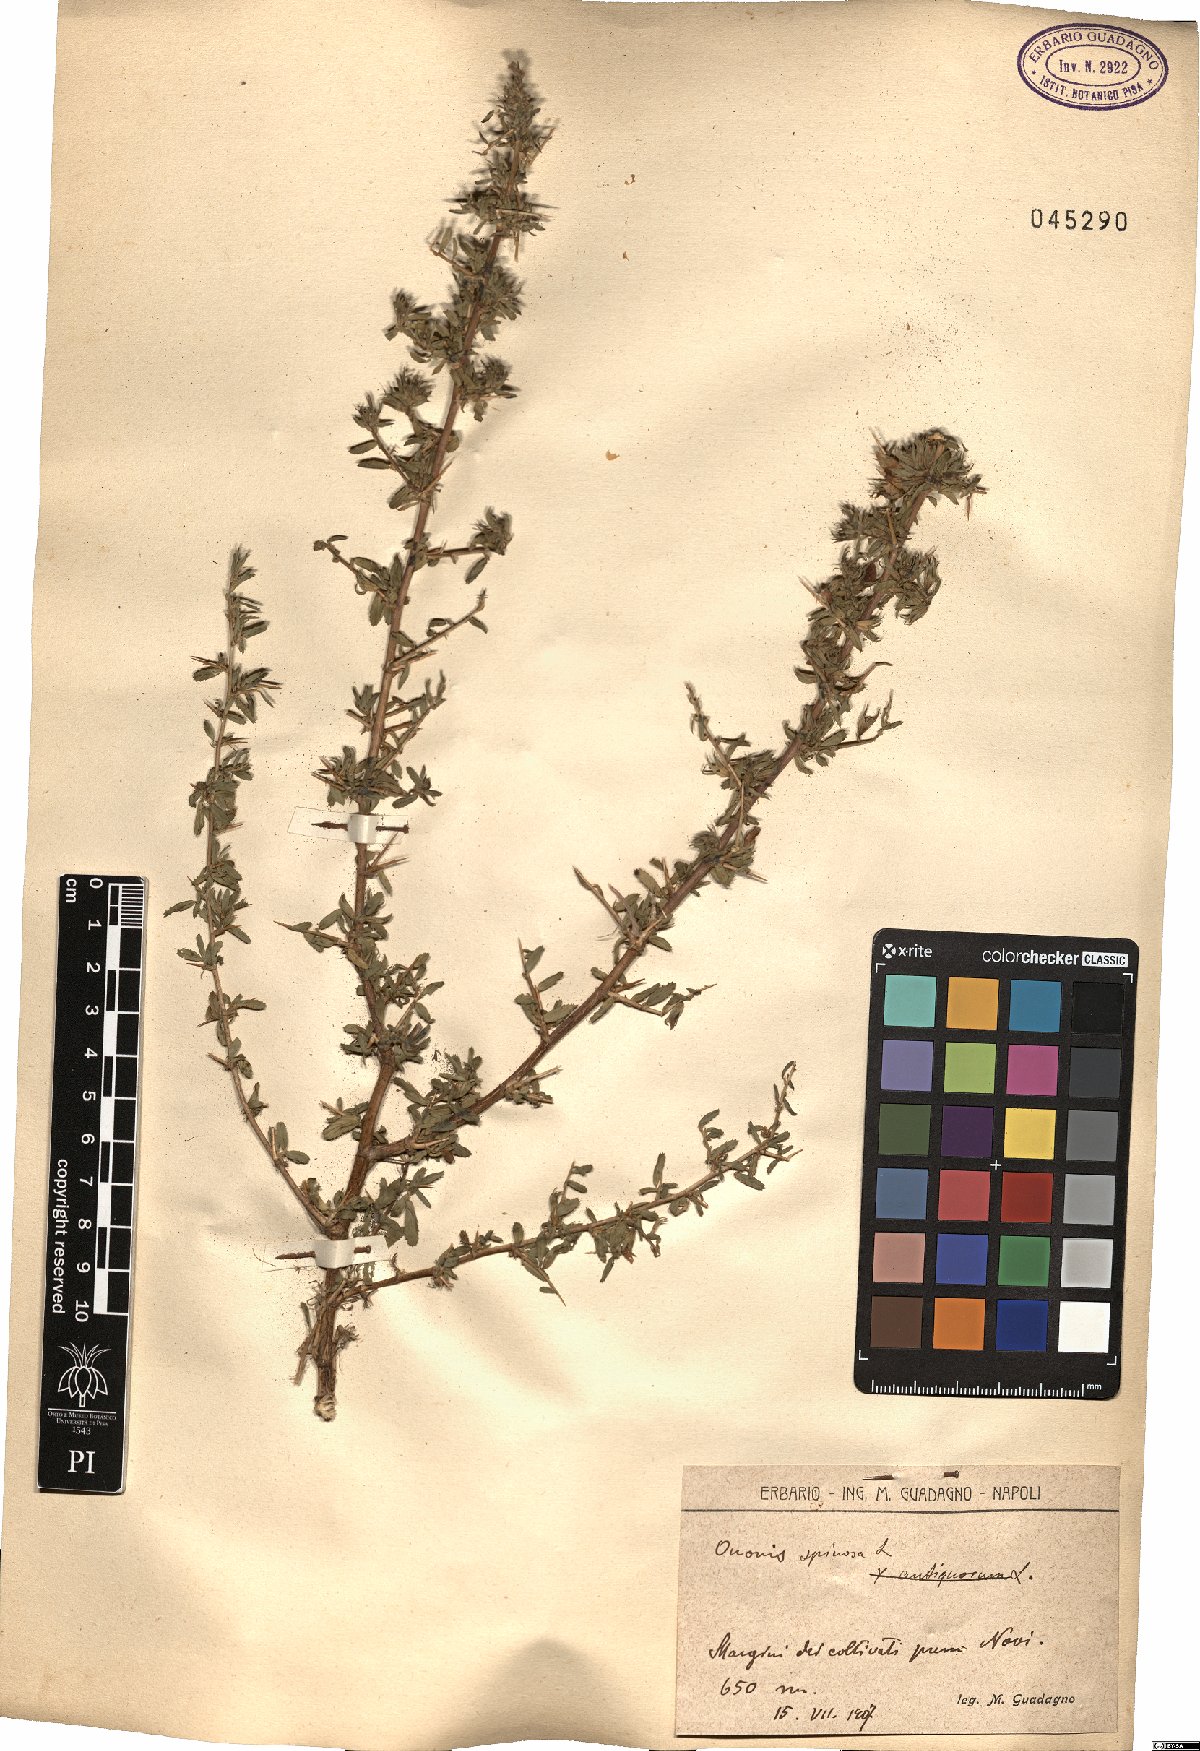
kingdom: Plantae
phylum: Tracheophyta
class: Magnoliopsida
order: Fabales
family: Fabaceae
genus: Ononis
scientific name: Ononis spinosa
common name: Spiny restharrow
